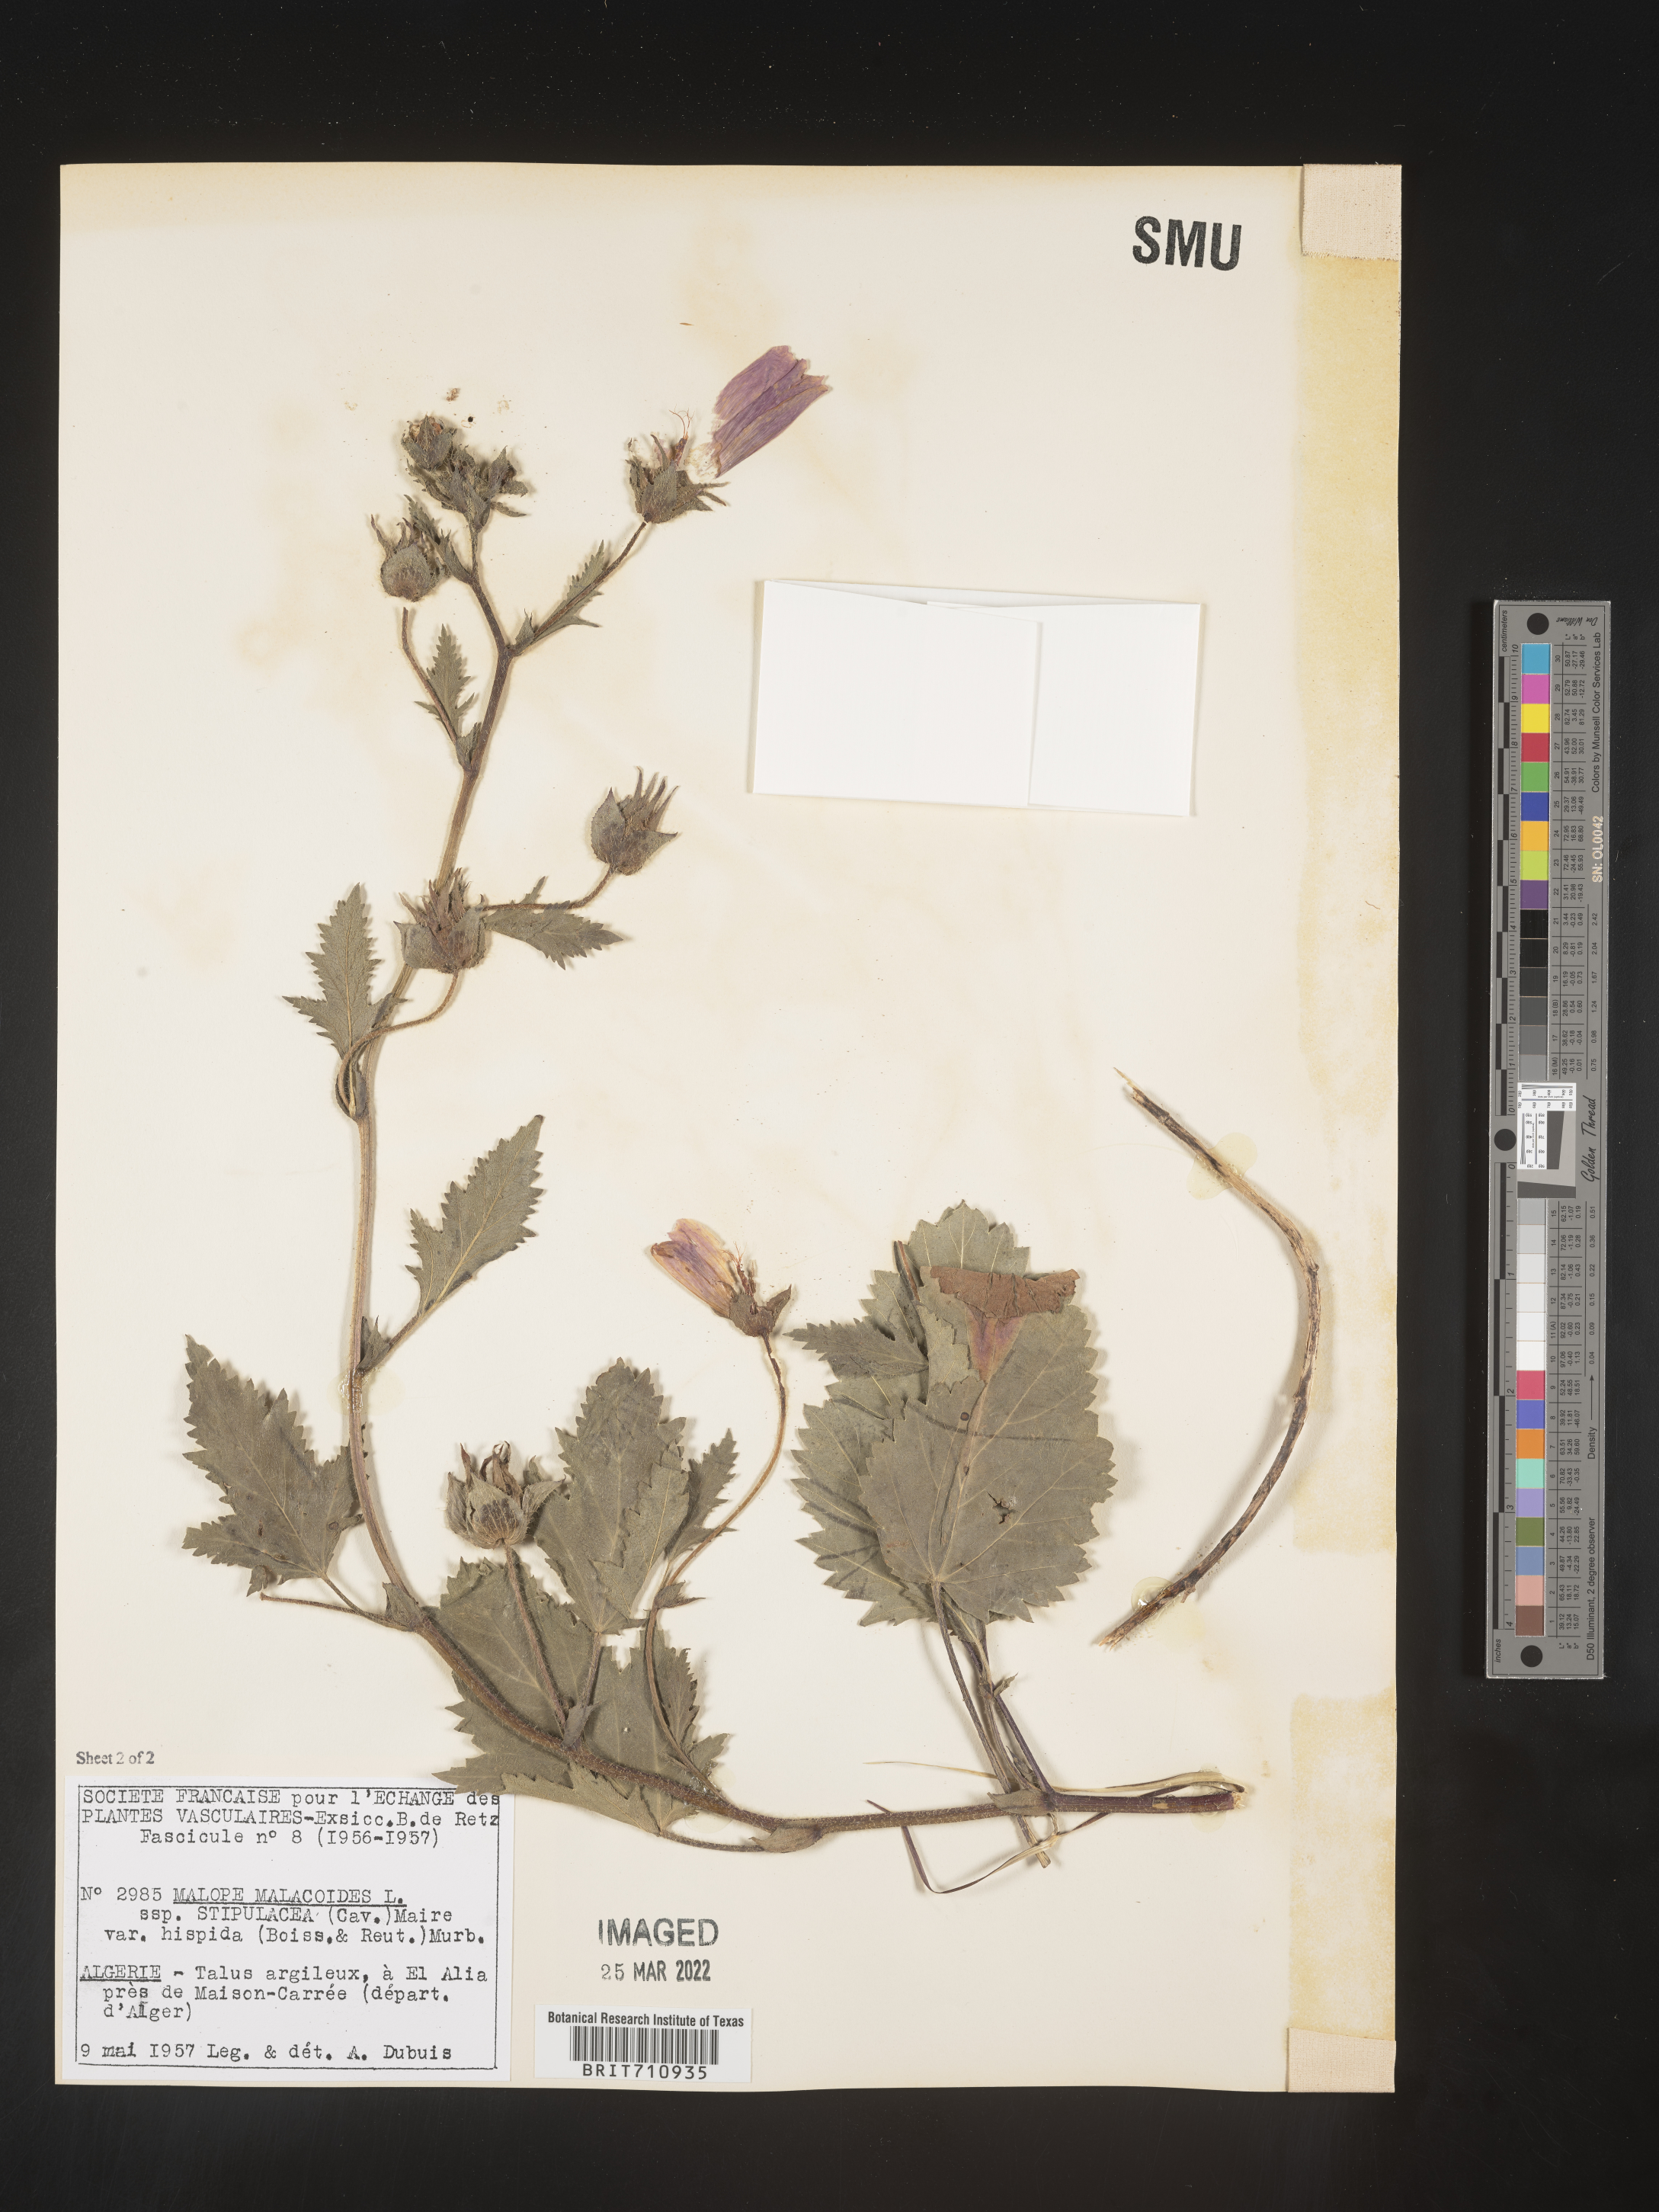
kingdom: Plantae
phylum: Tracheophyta
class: Magnoliopsida
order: Malvales
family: Malvaceae
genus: Malope
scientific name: Malope
